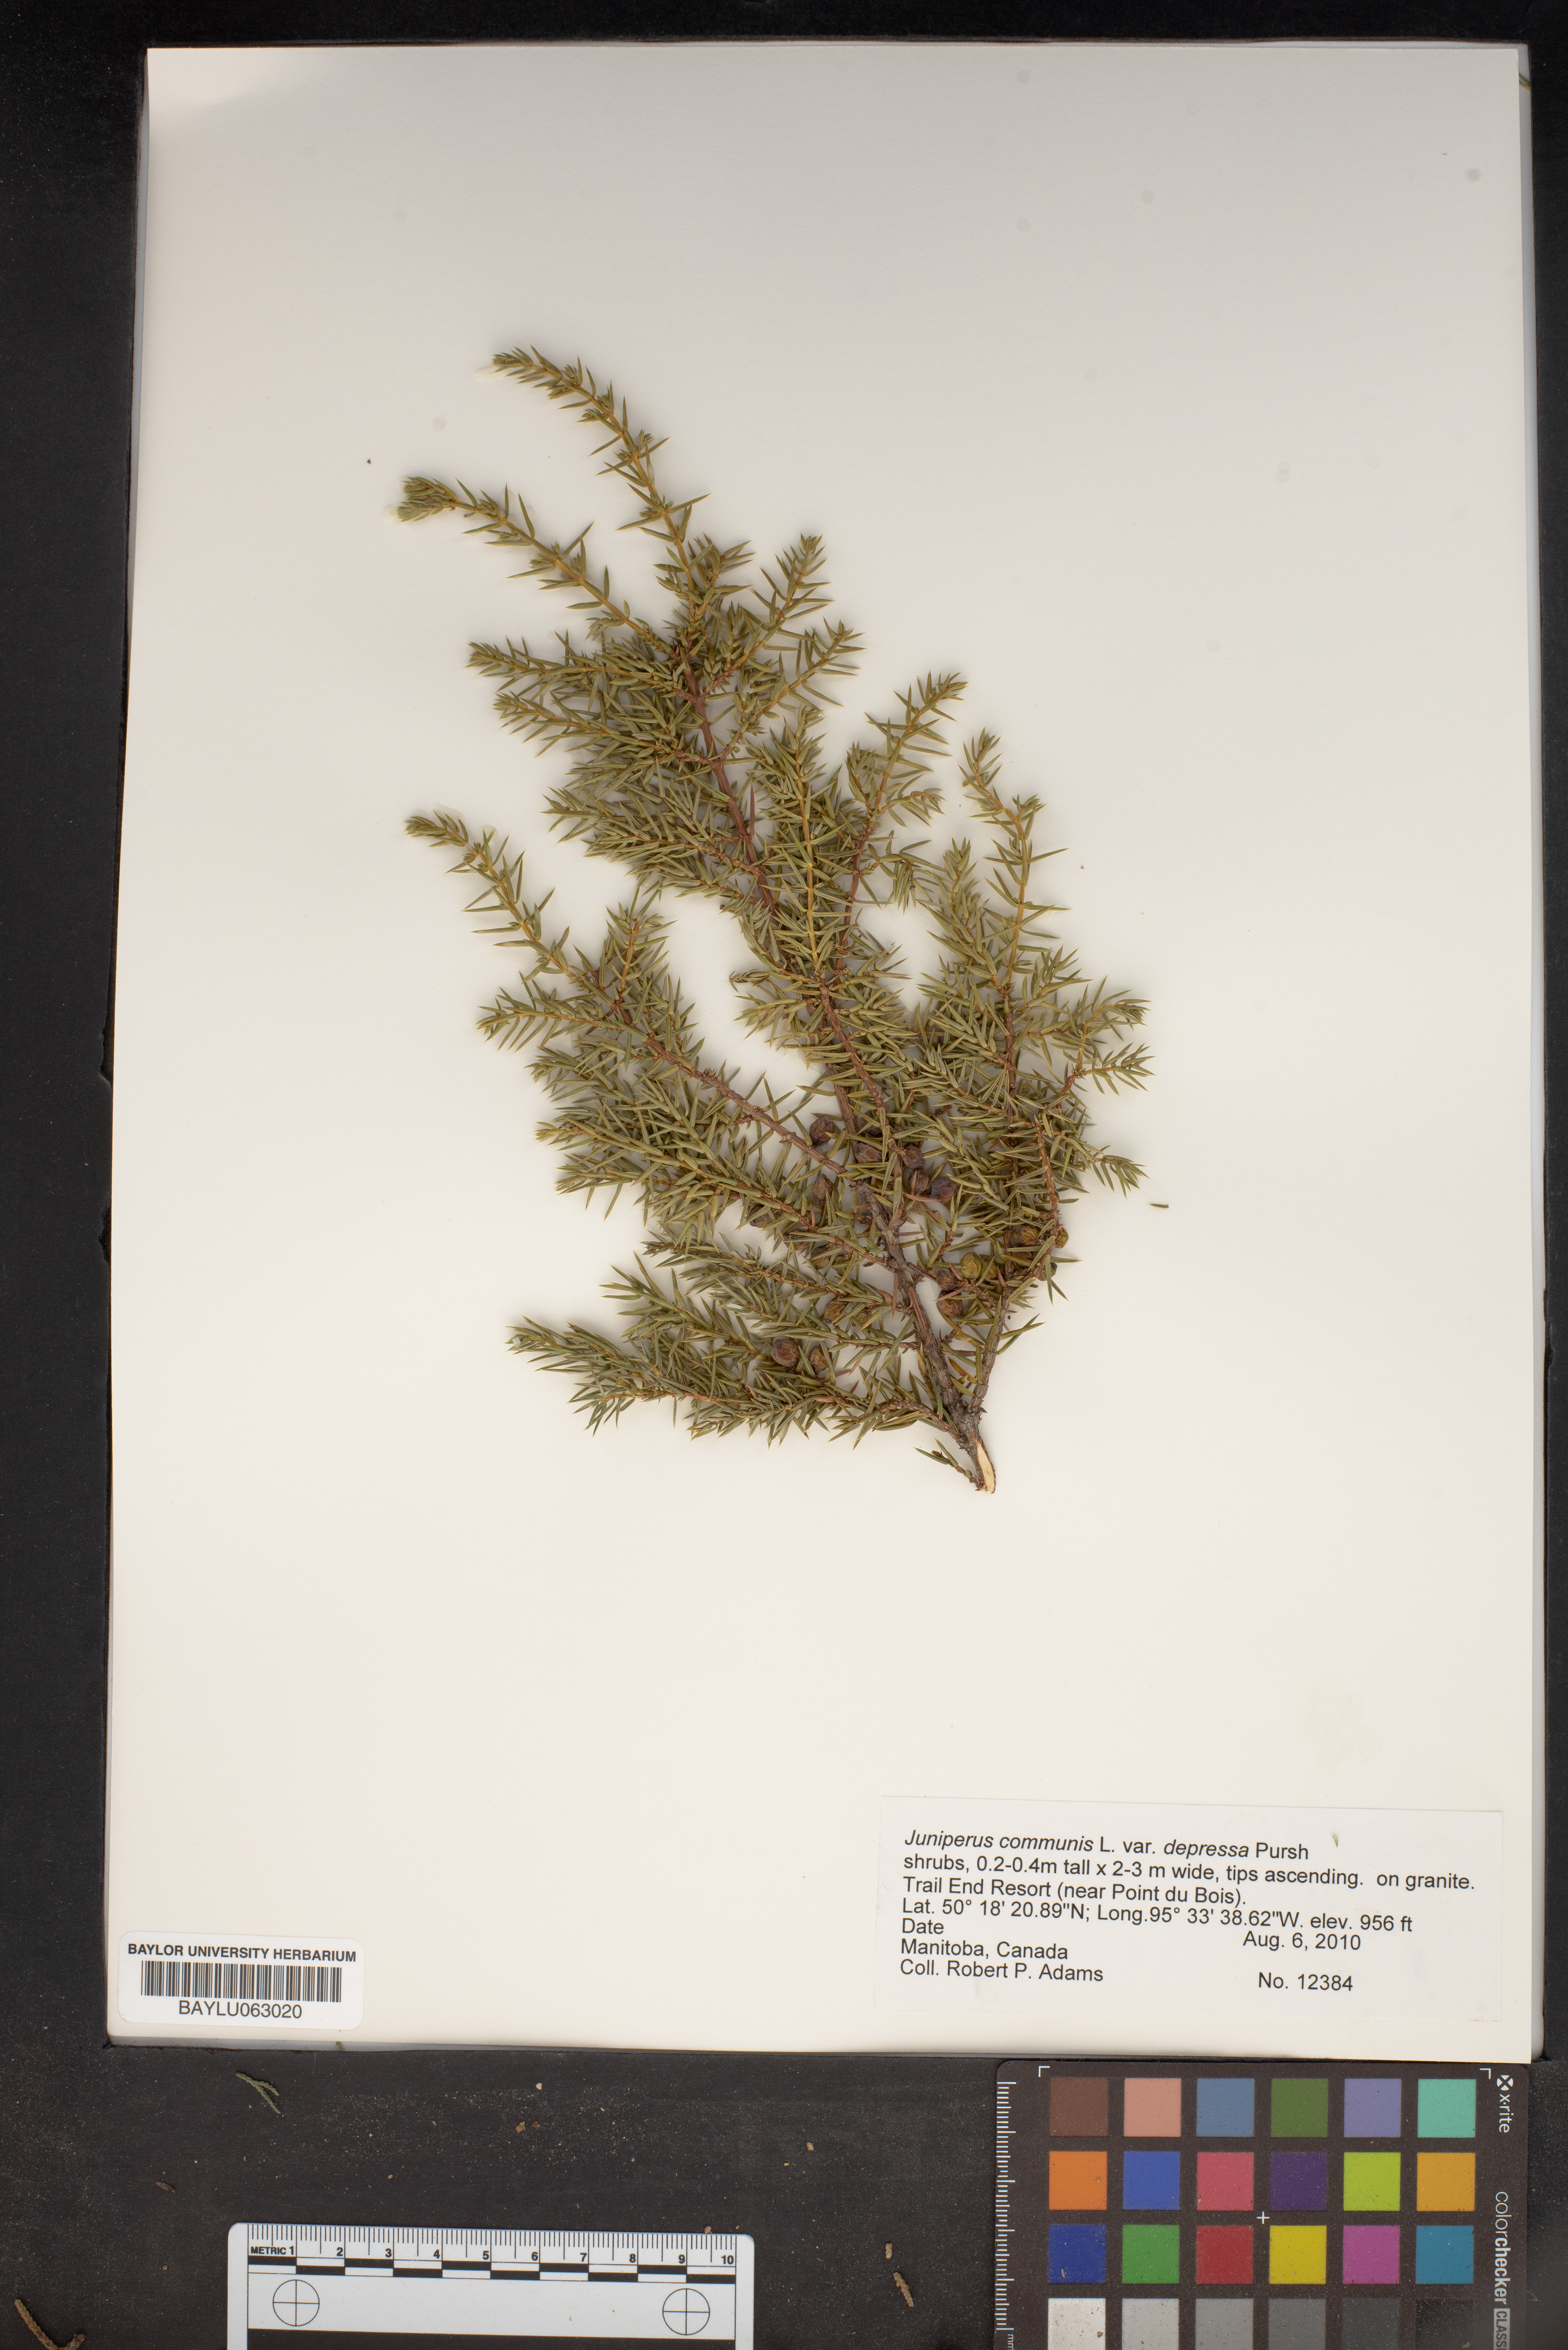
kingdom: Plantae
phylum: Tracheophyta
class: Pinopsida
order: Pinales
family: Cupressaceae
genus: Juniperus
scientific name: Juniperus communis
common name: Common juniper
